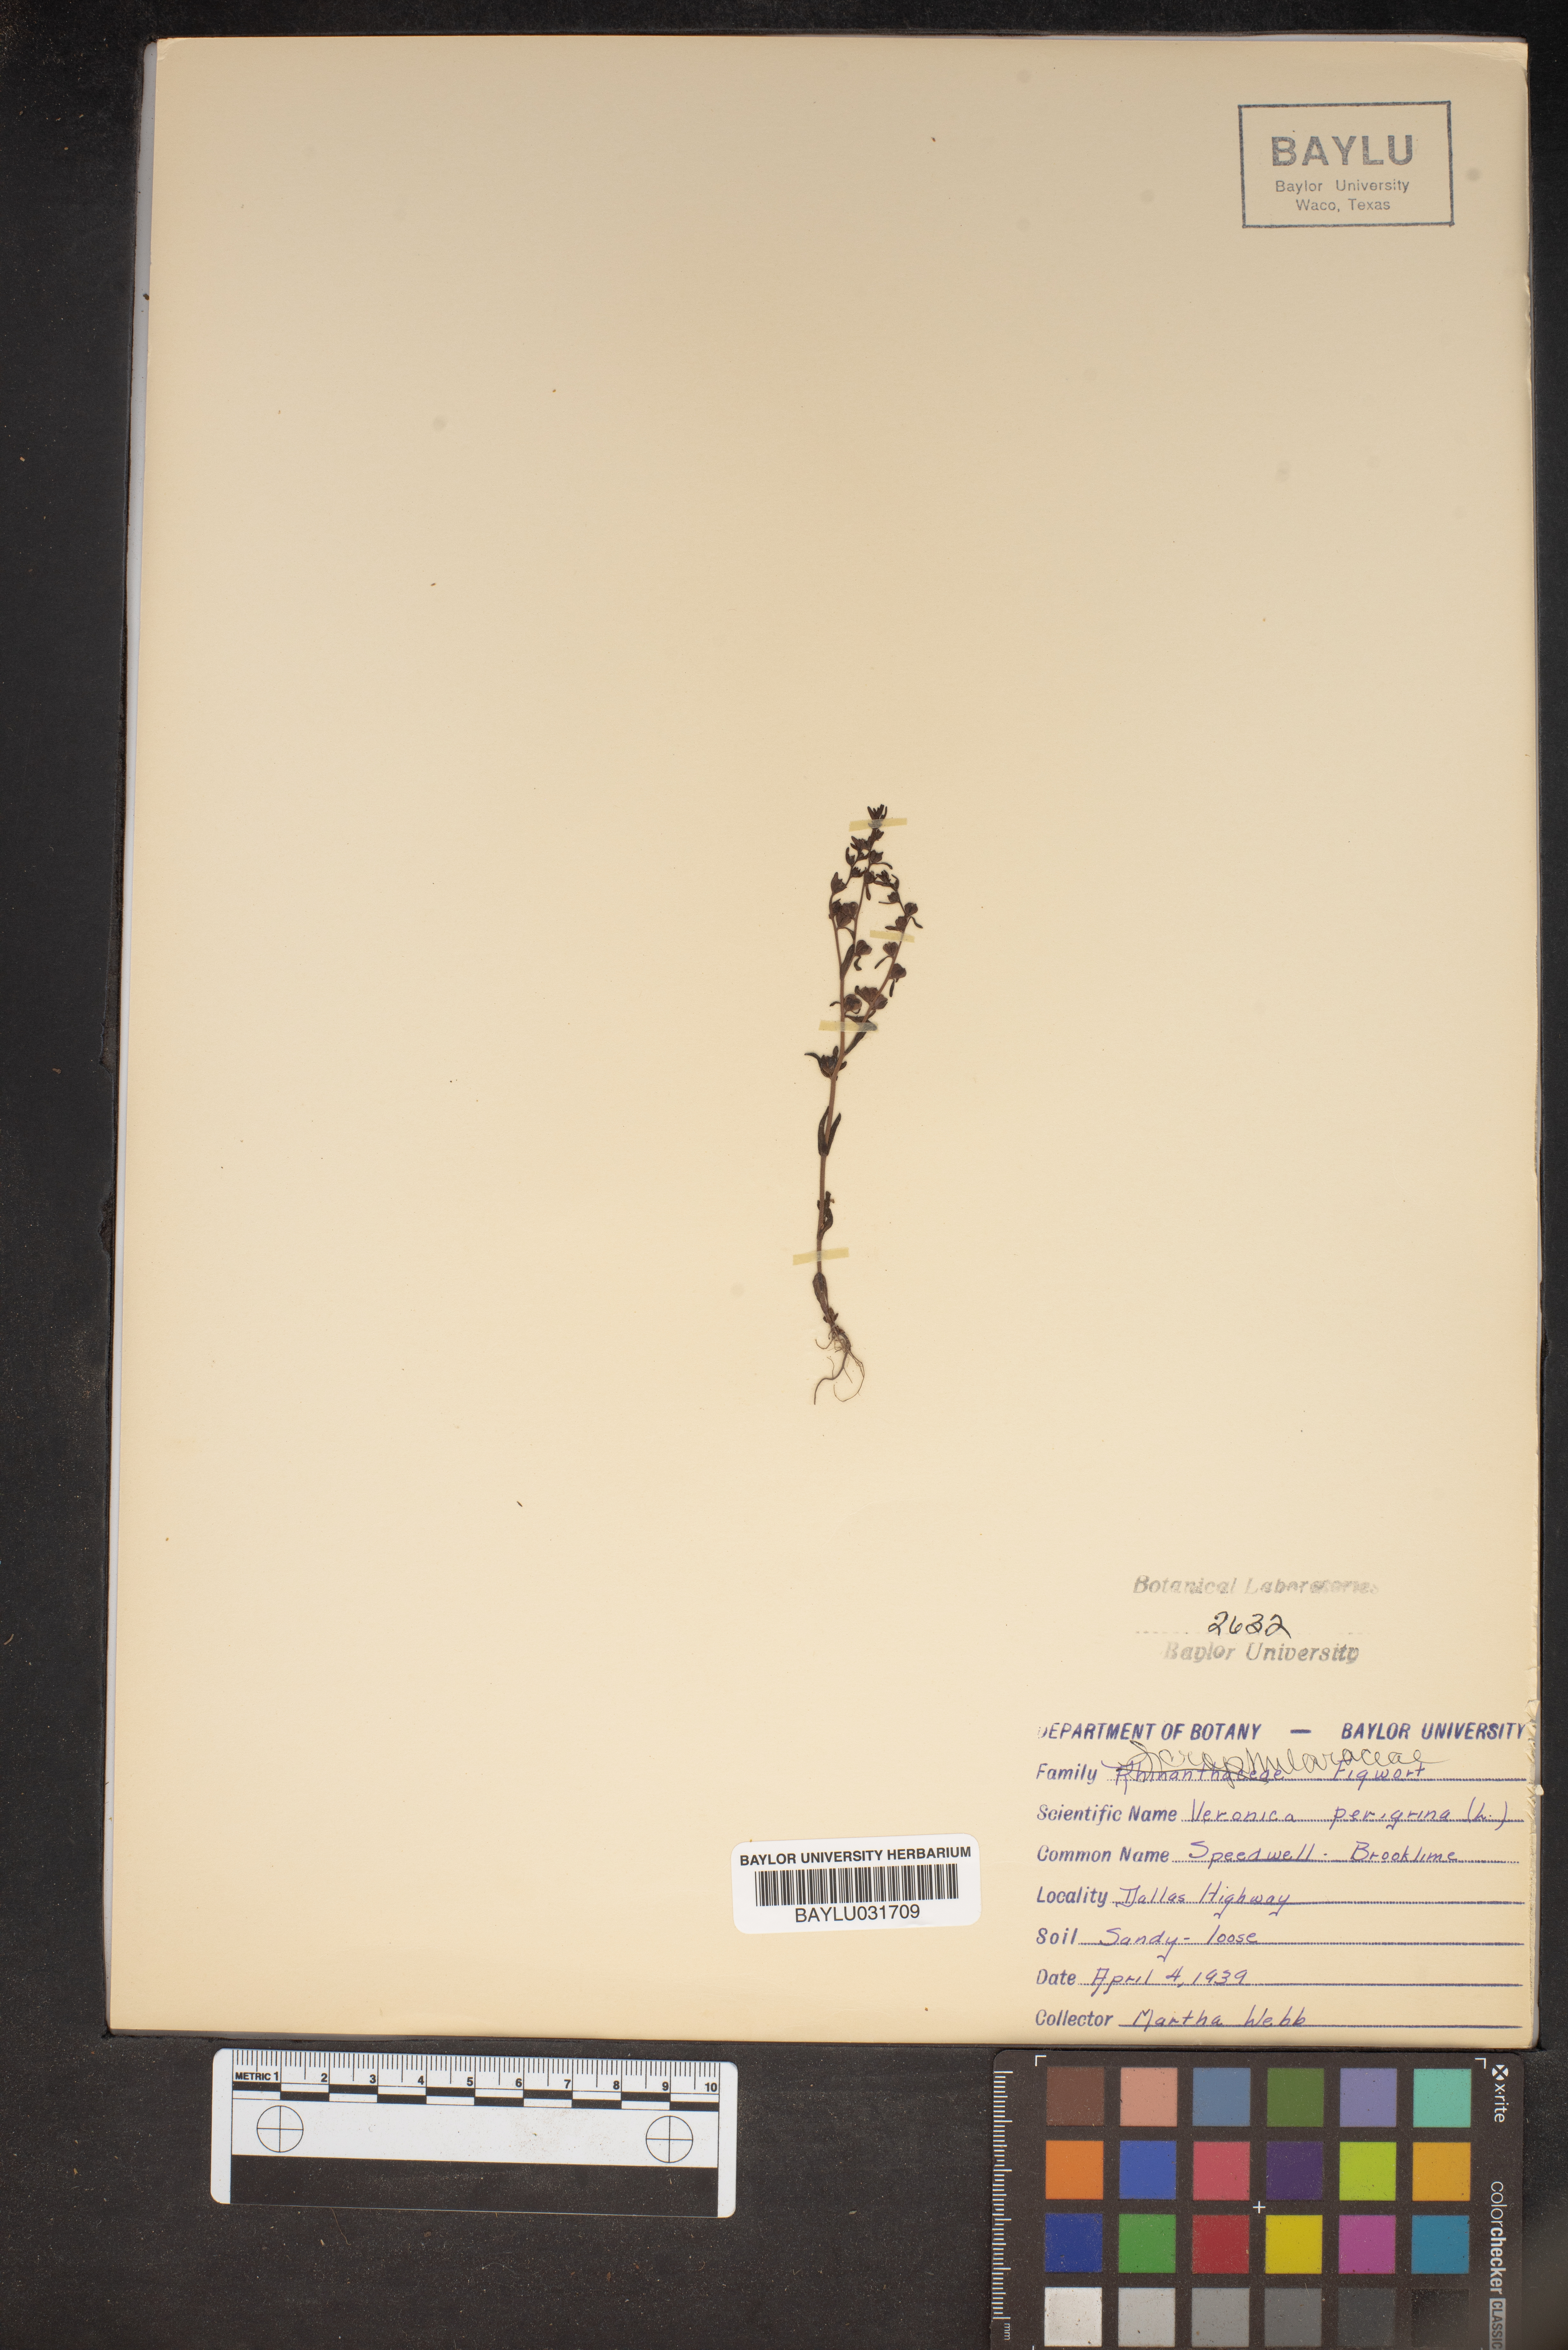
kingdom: Plantae
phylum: Tracheophyta
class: Magnoliopsida
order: Lamiales
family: Plantaginaceae
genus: Veronica
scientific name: Veronica peregrina
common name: Neckweed
